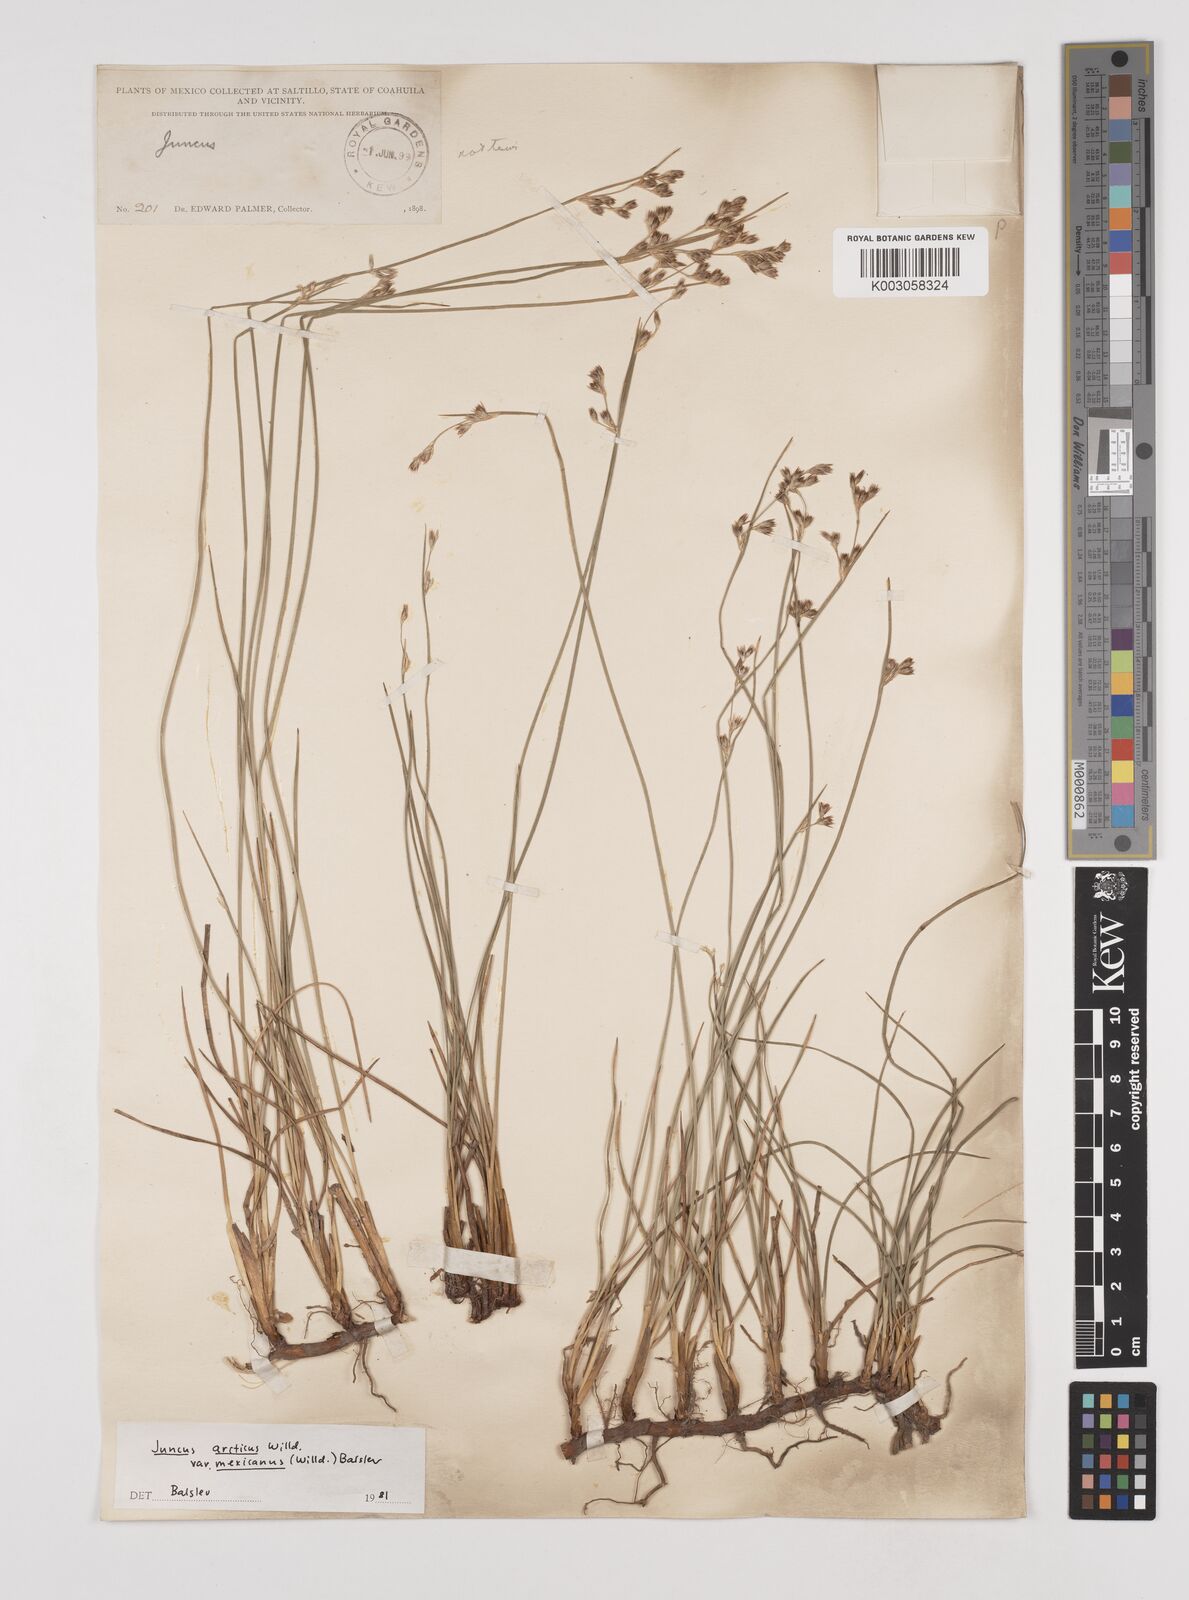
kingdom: Plantae
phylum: Tracheophyta
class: Liliopsida
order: Poales
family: Juncaceae
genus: Juncus
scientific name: Juncus arcticus
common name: Arctic rush
